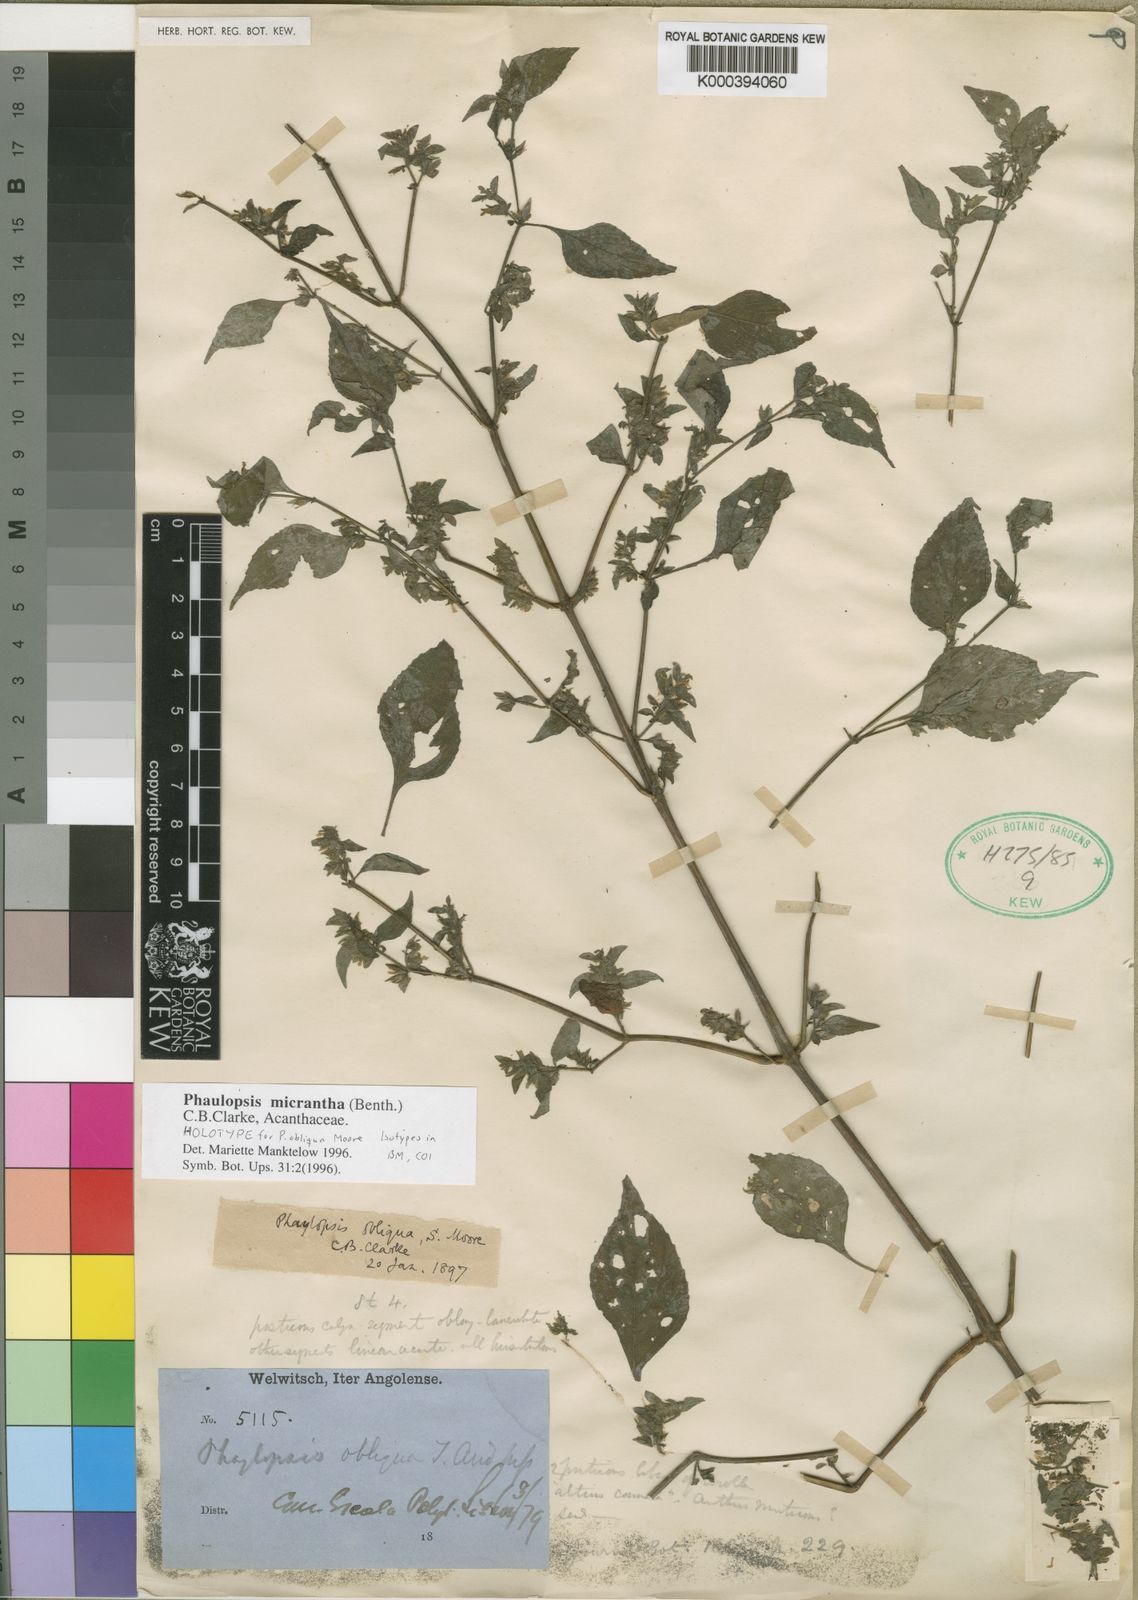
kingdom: Plantae
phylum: Tracheophyta
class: Magnoliopsida
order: Lamiales
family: Acanthaceae
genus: Phaulopsis
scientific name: Phaulopsis micrantha
